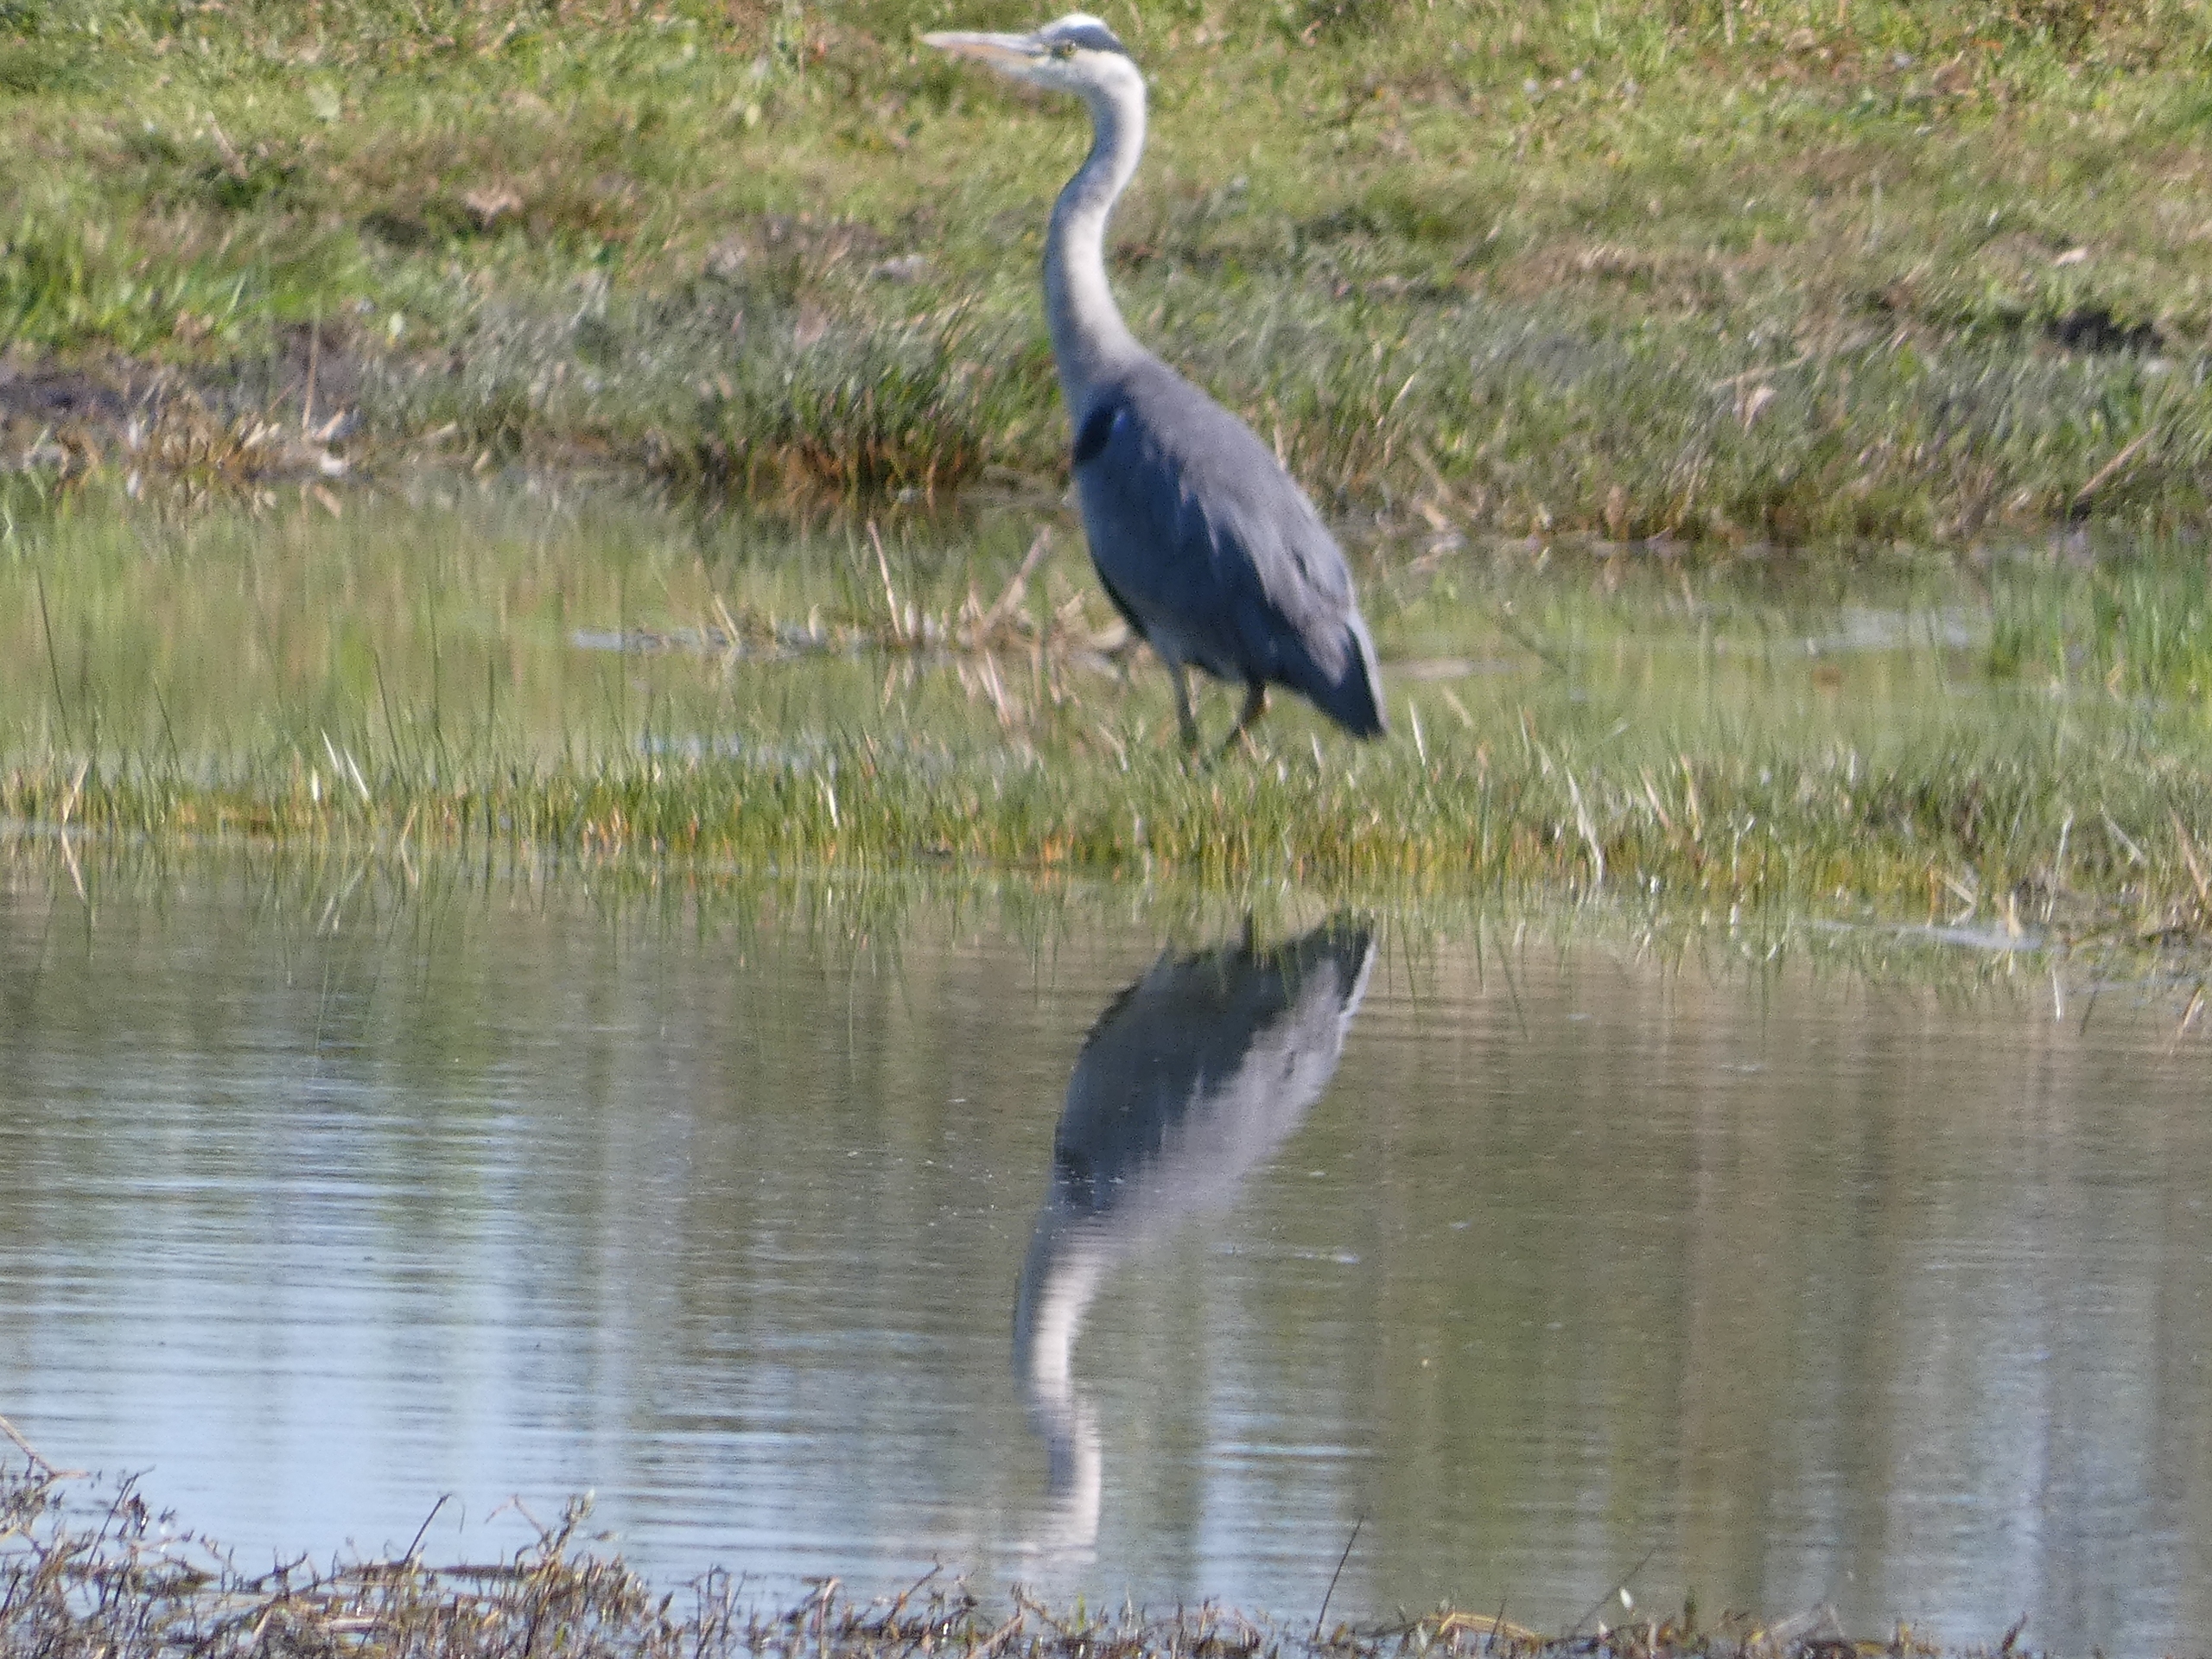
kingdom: Animalia
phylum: Chordata
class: Aves
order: Pelecaniformes
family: Ardeidae
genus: Ardea
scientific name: Ardea cinerea
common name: Fiskehejre
